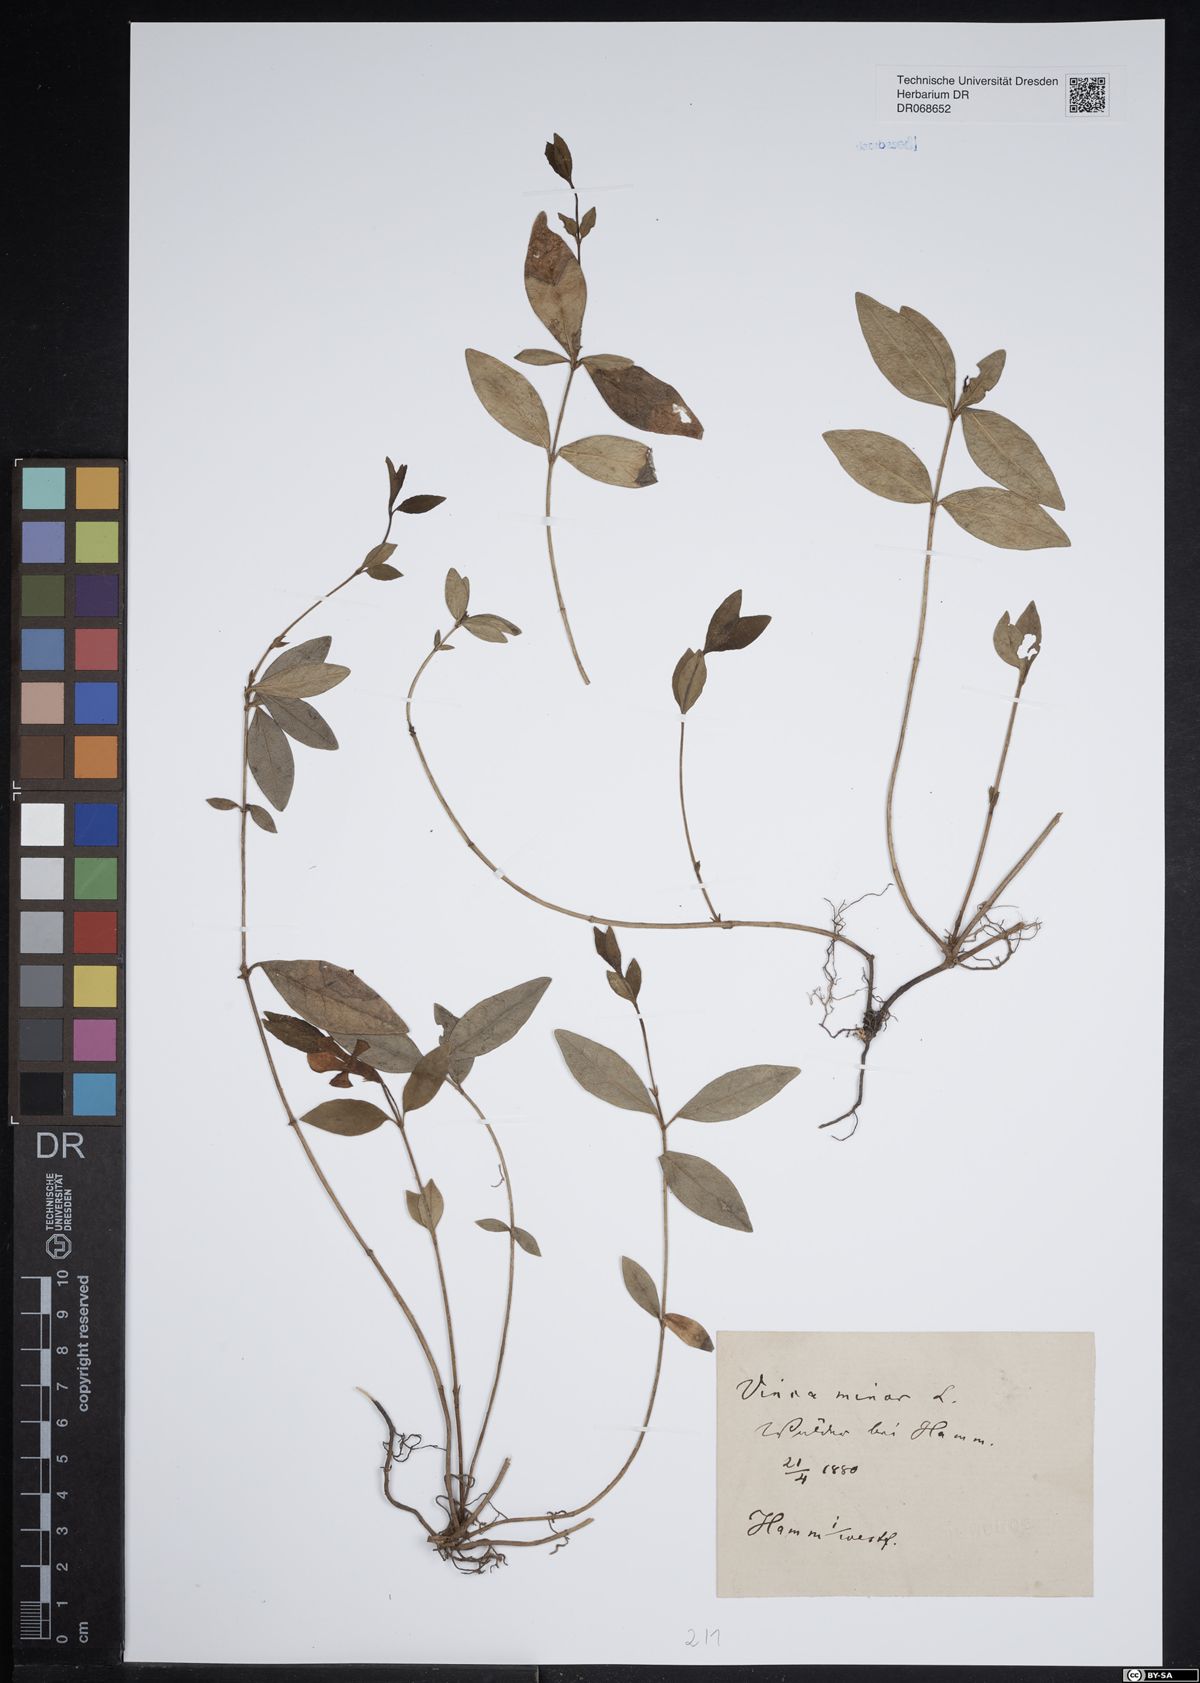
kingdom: Plantae
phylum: Tracheophyta
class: Magnoliopsida
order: Gentianales
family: Apocynaceae
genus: Vinca
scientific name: Vinca major
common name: Greater periwinkle
